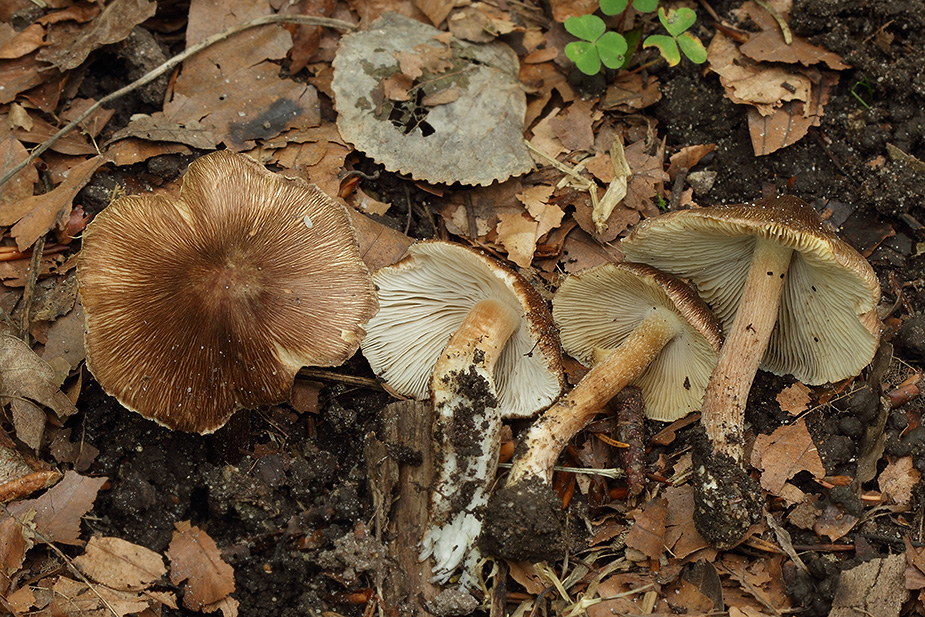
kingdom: Fungi
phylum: Basidiomycota
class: Agaricomycetes
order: Agaricales
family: Inocybaceae
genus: Inosperma
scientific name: Inosperma
